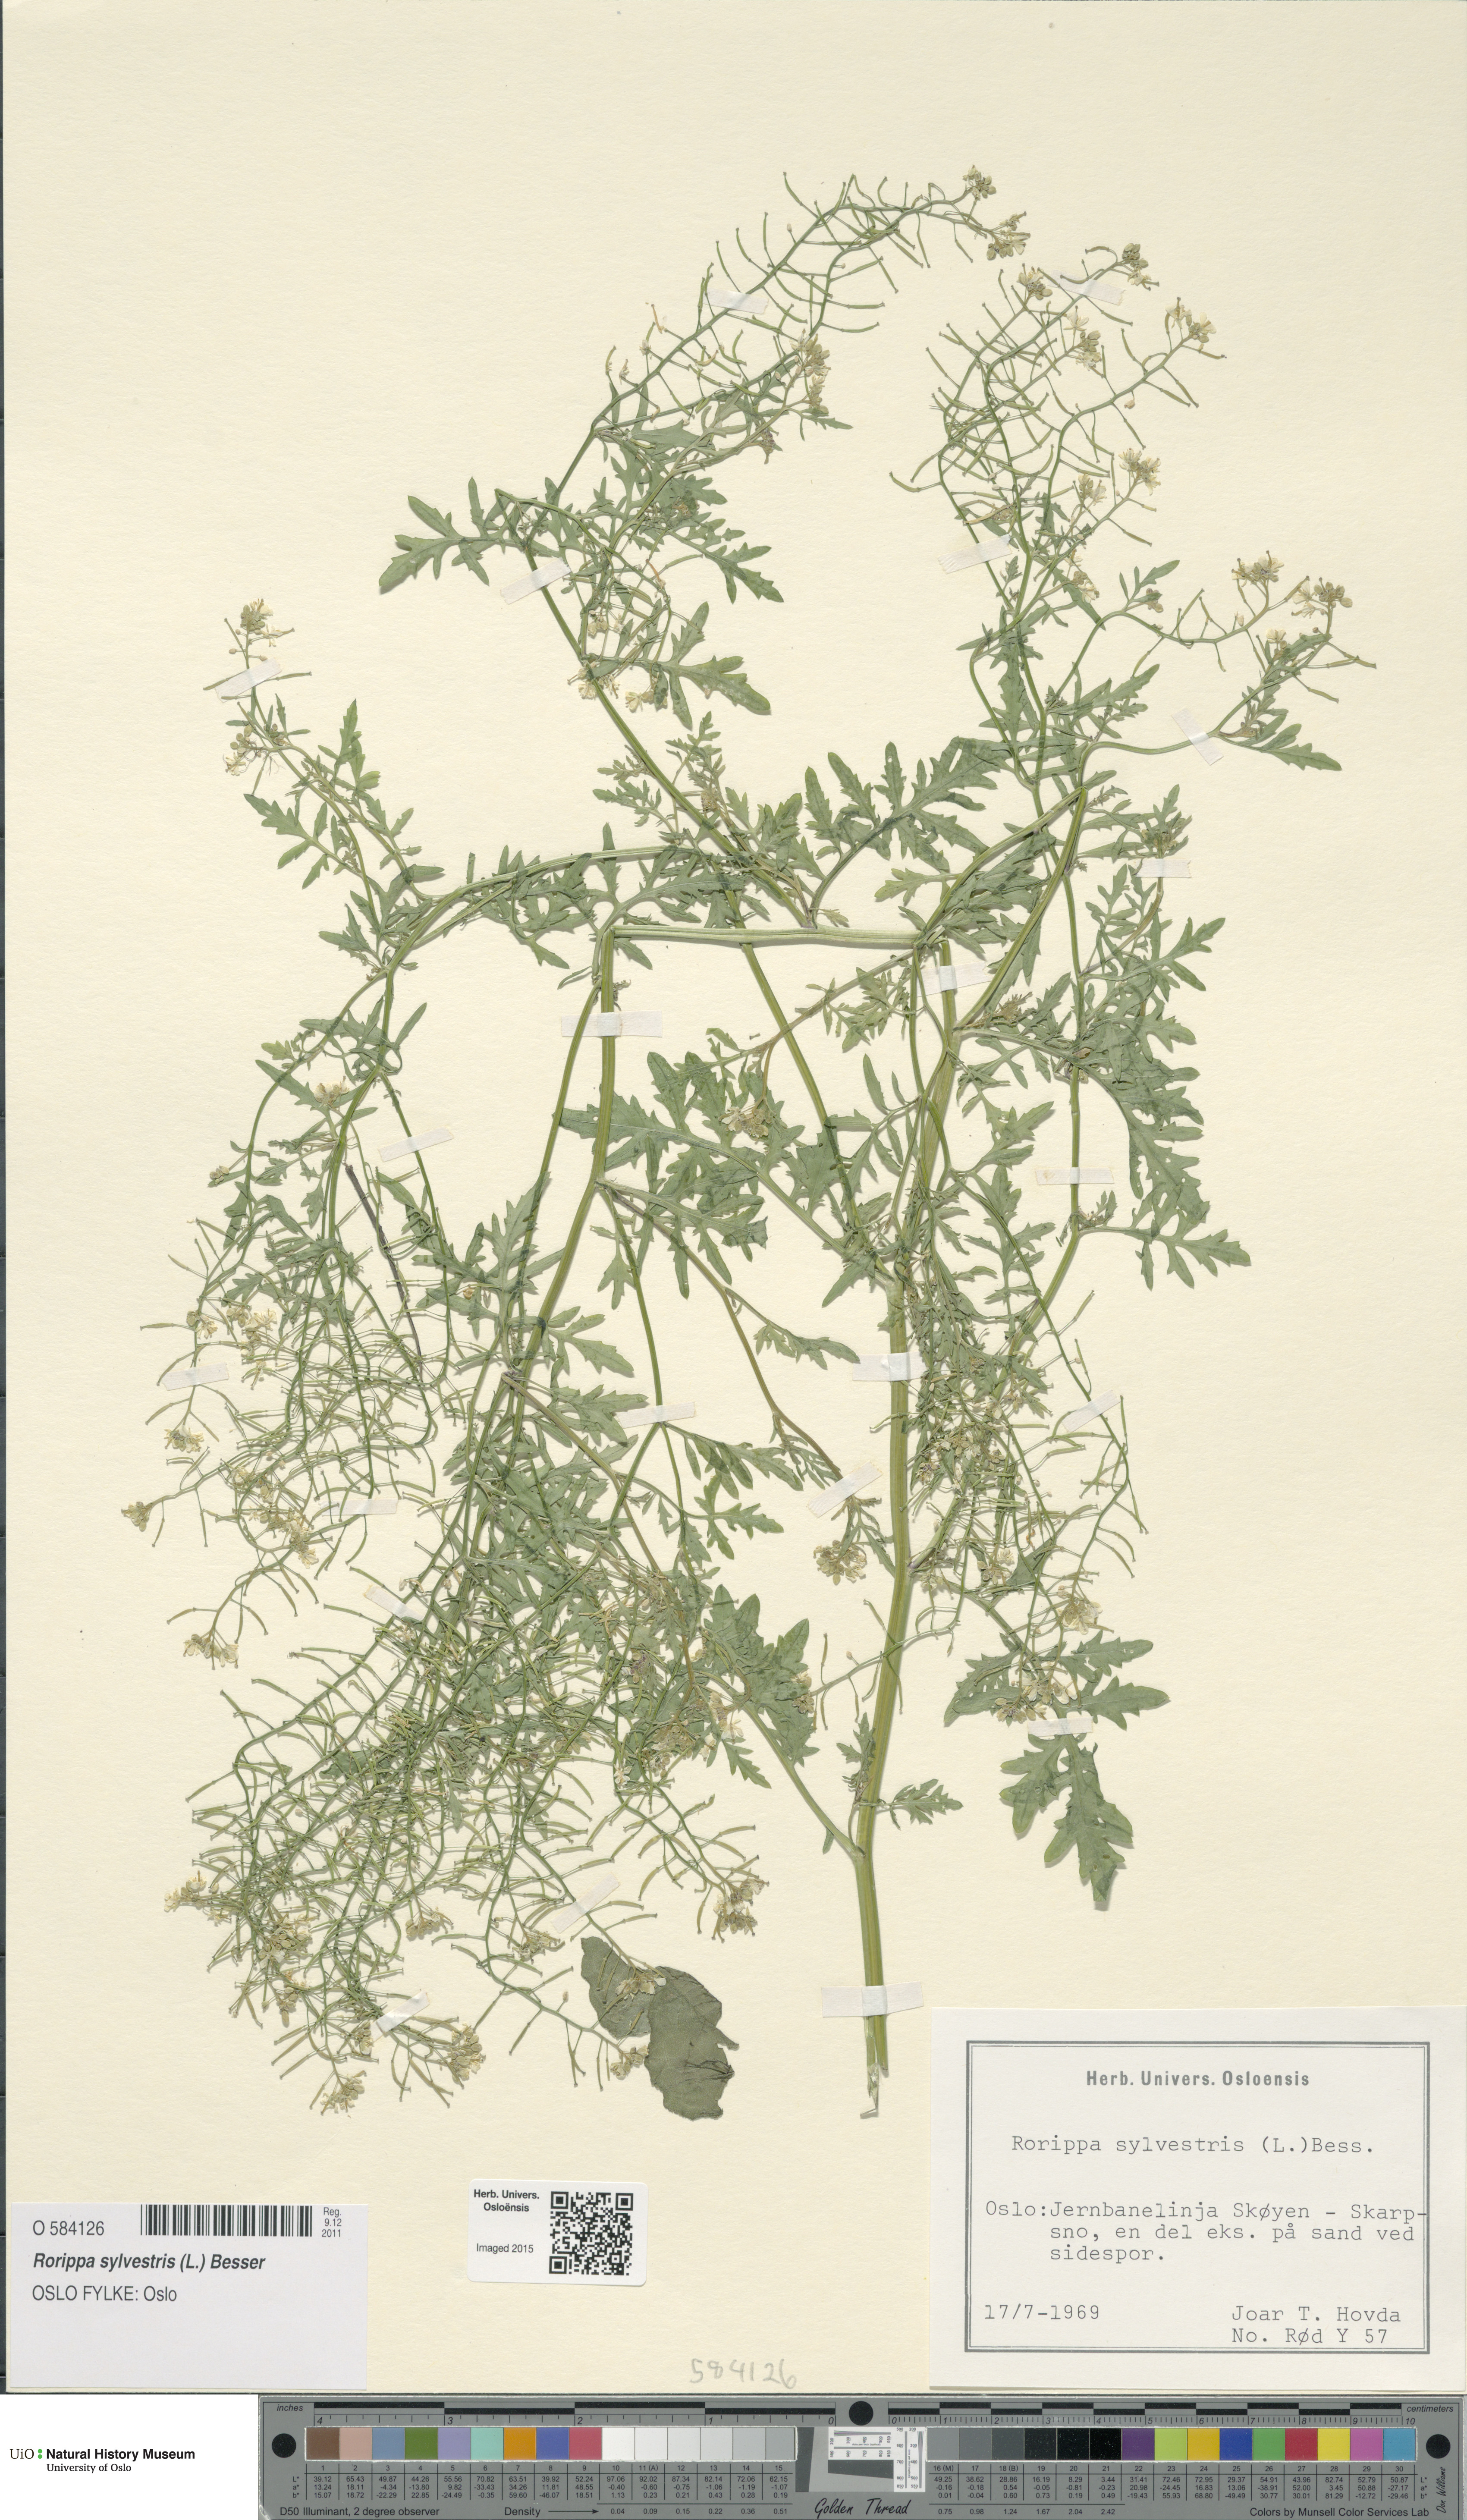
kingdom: Plantae
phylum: Tracheophyta
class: Magnoliopsida
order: Brassicales
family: Brassicaceae
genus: Rorippa
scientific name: Rorippa sylvestris
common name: Creeping yellowcress
